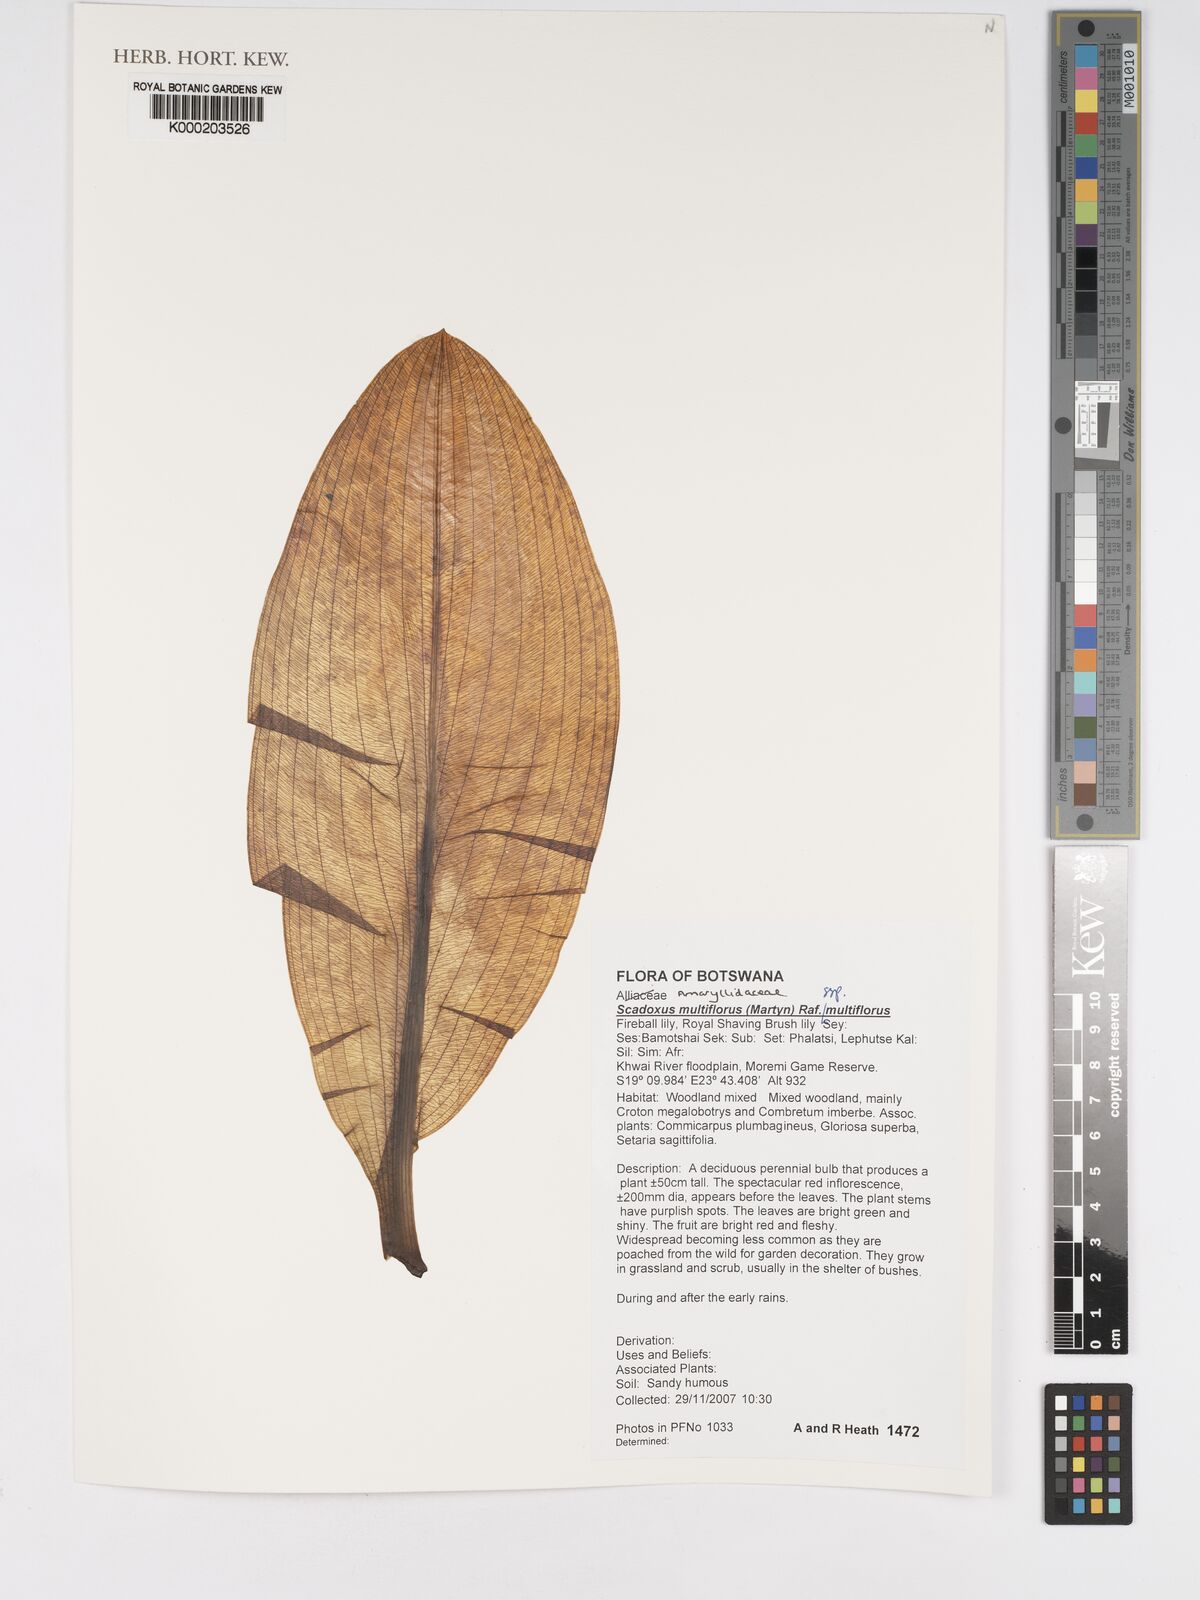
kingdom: Plantae
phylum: Tracheophyta
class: Liliopsida
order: Asparagales
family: Amaryllidaceae
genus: Scadoxus
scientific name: Scadoxus multiflorus
